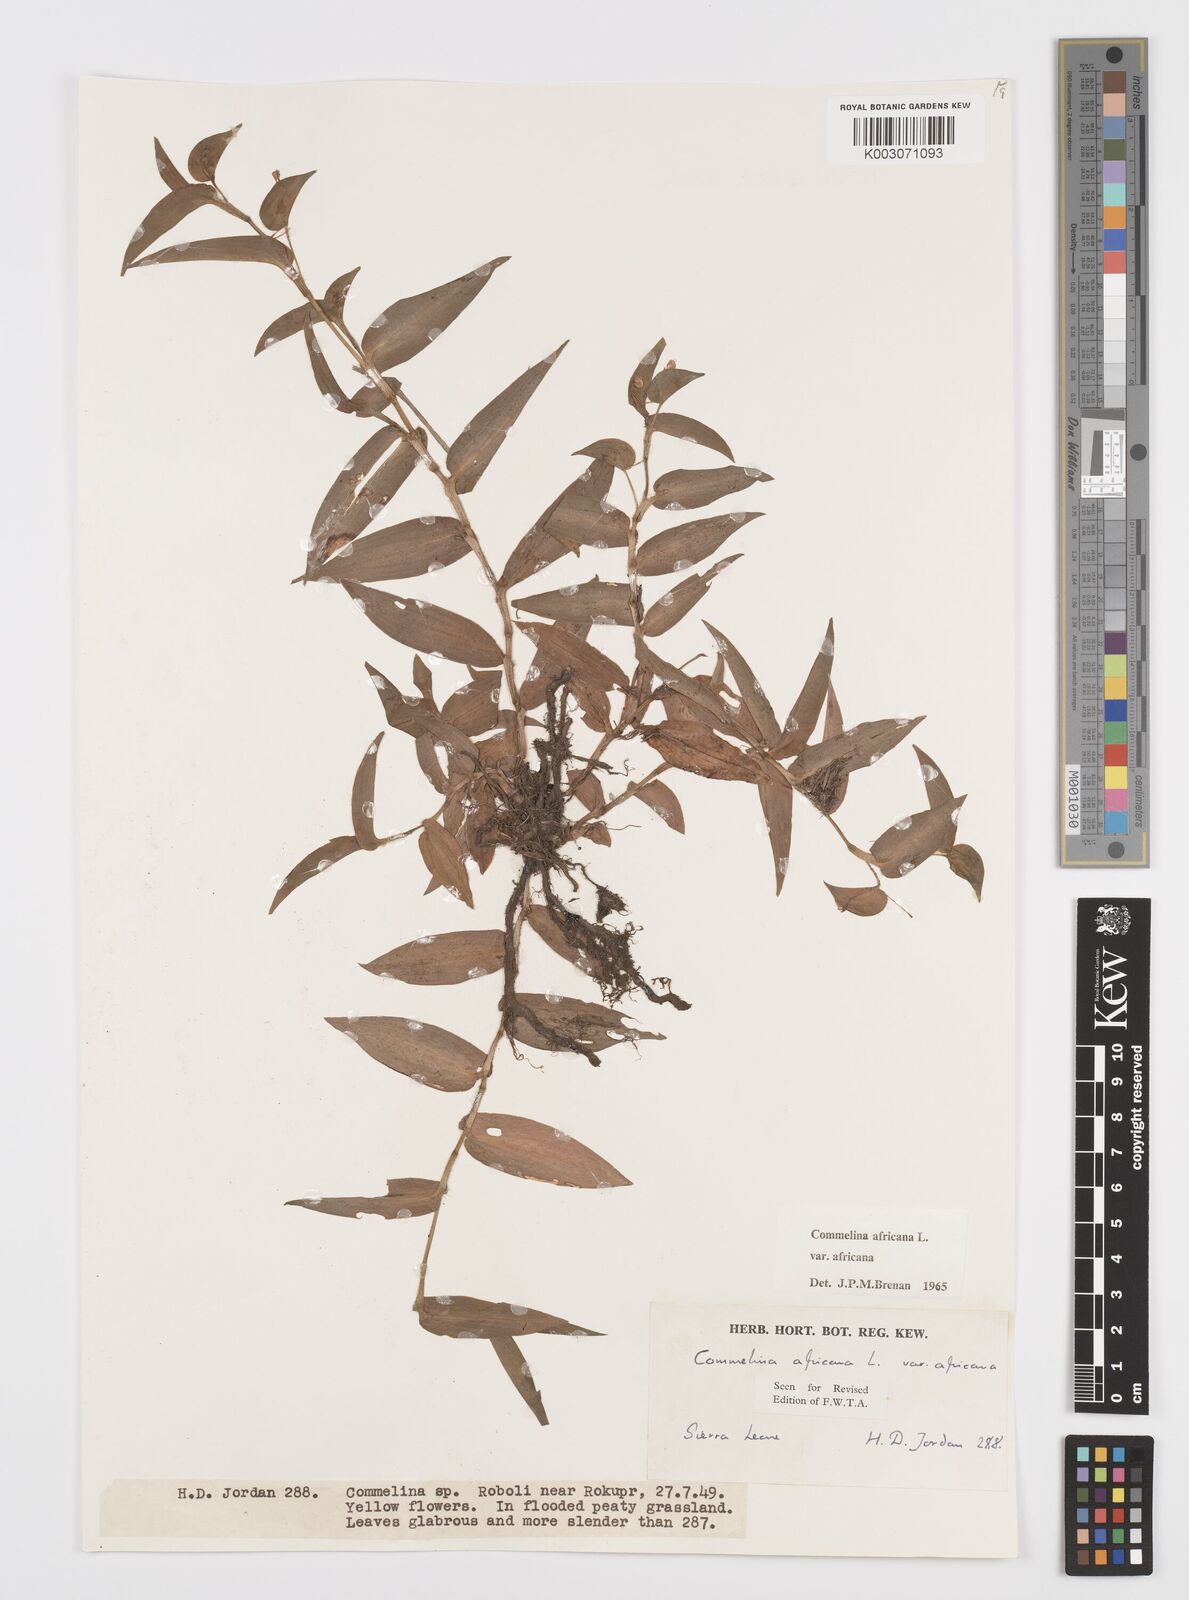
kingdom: Plantae
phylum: Tracheophyta
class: Liliopsida
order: Commelinales
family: Commelinaceae
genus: Commelina
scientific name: Commelina africana
